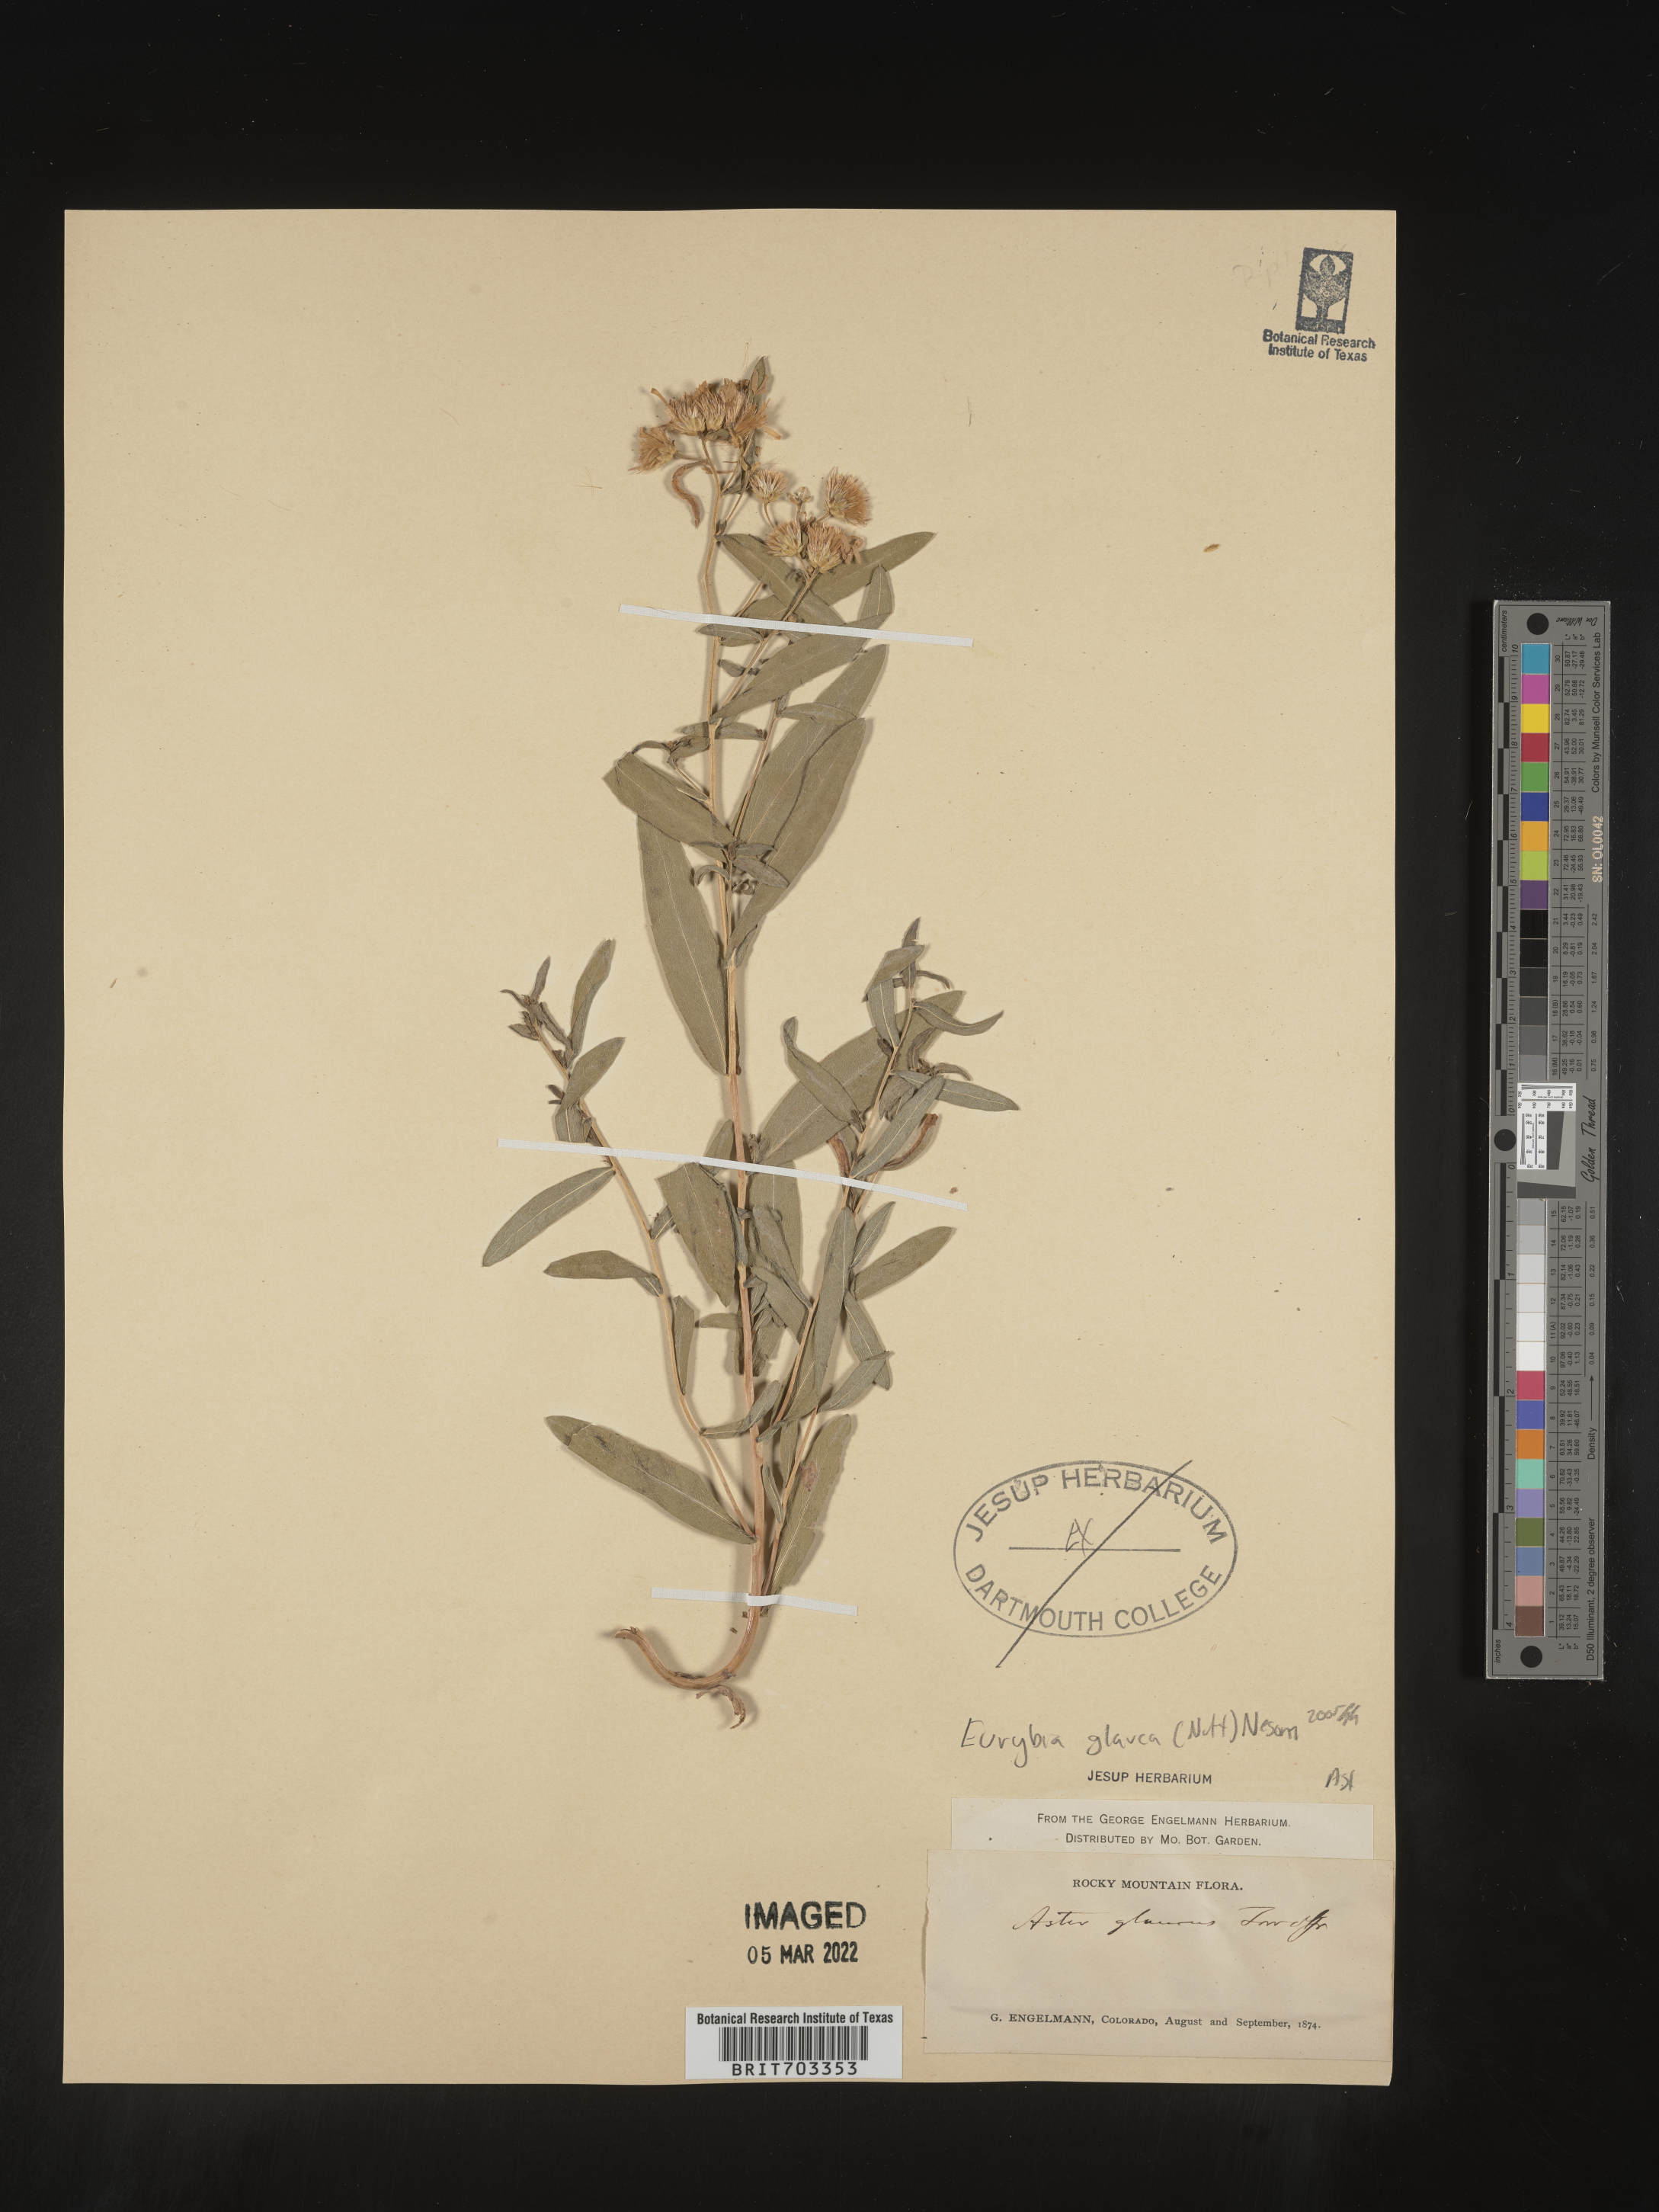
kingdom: Plantae
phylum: Tracheophyta
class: Magnoliopsida
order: Asterales
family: Asteraceae
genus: Eurybia
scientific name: Eurybia glauca
